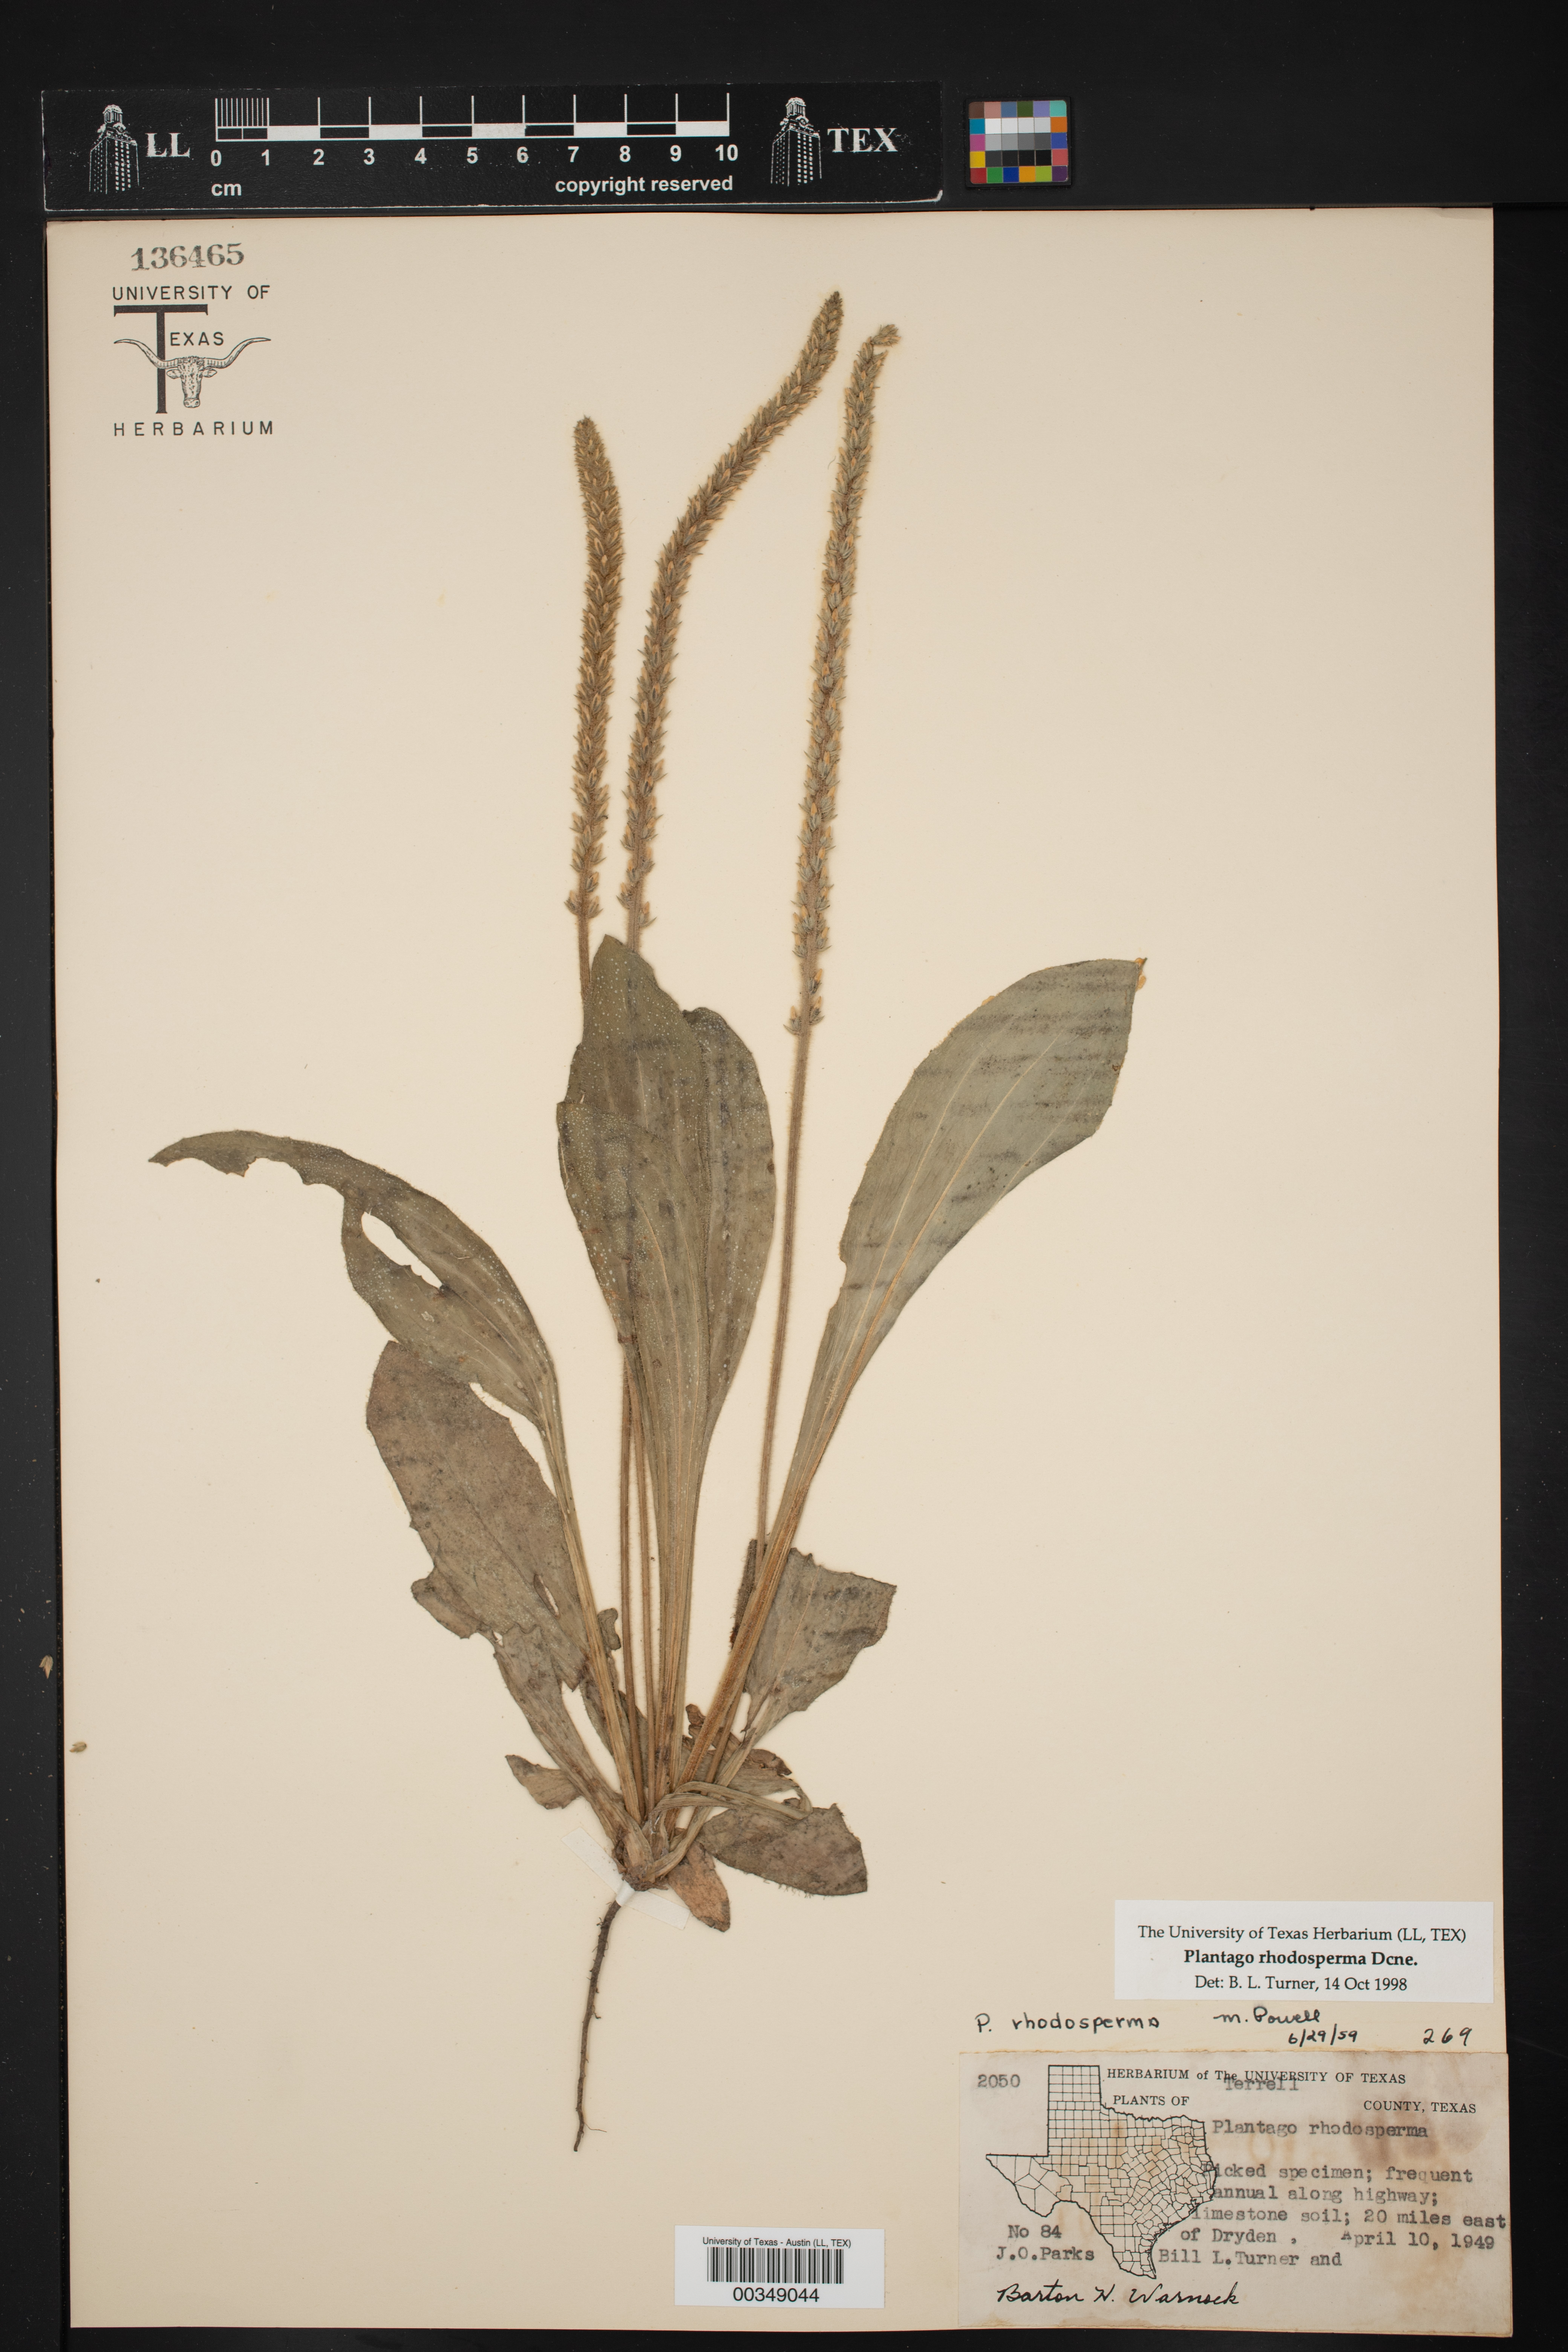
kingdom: Plantae
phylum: Tracheophyta
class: Magnoliopsida
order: Lamiales
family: Plantaginaceae
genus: Plantago
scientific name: Plantago rhodosperma
